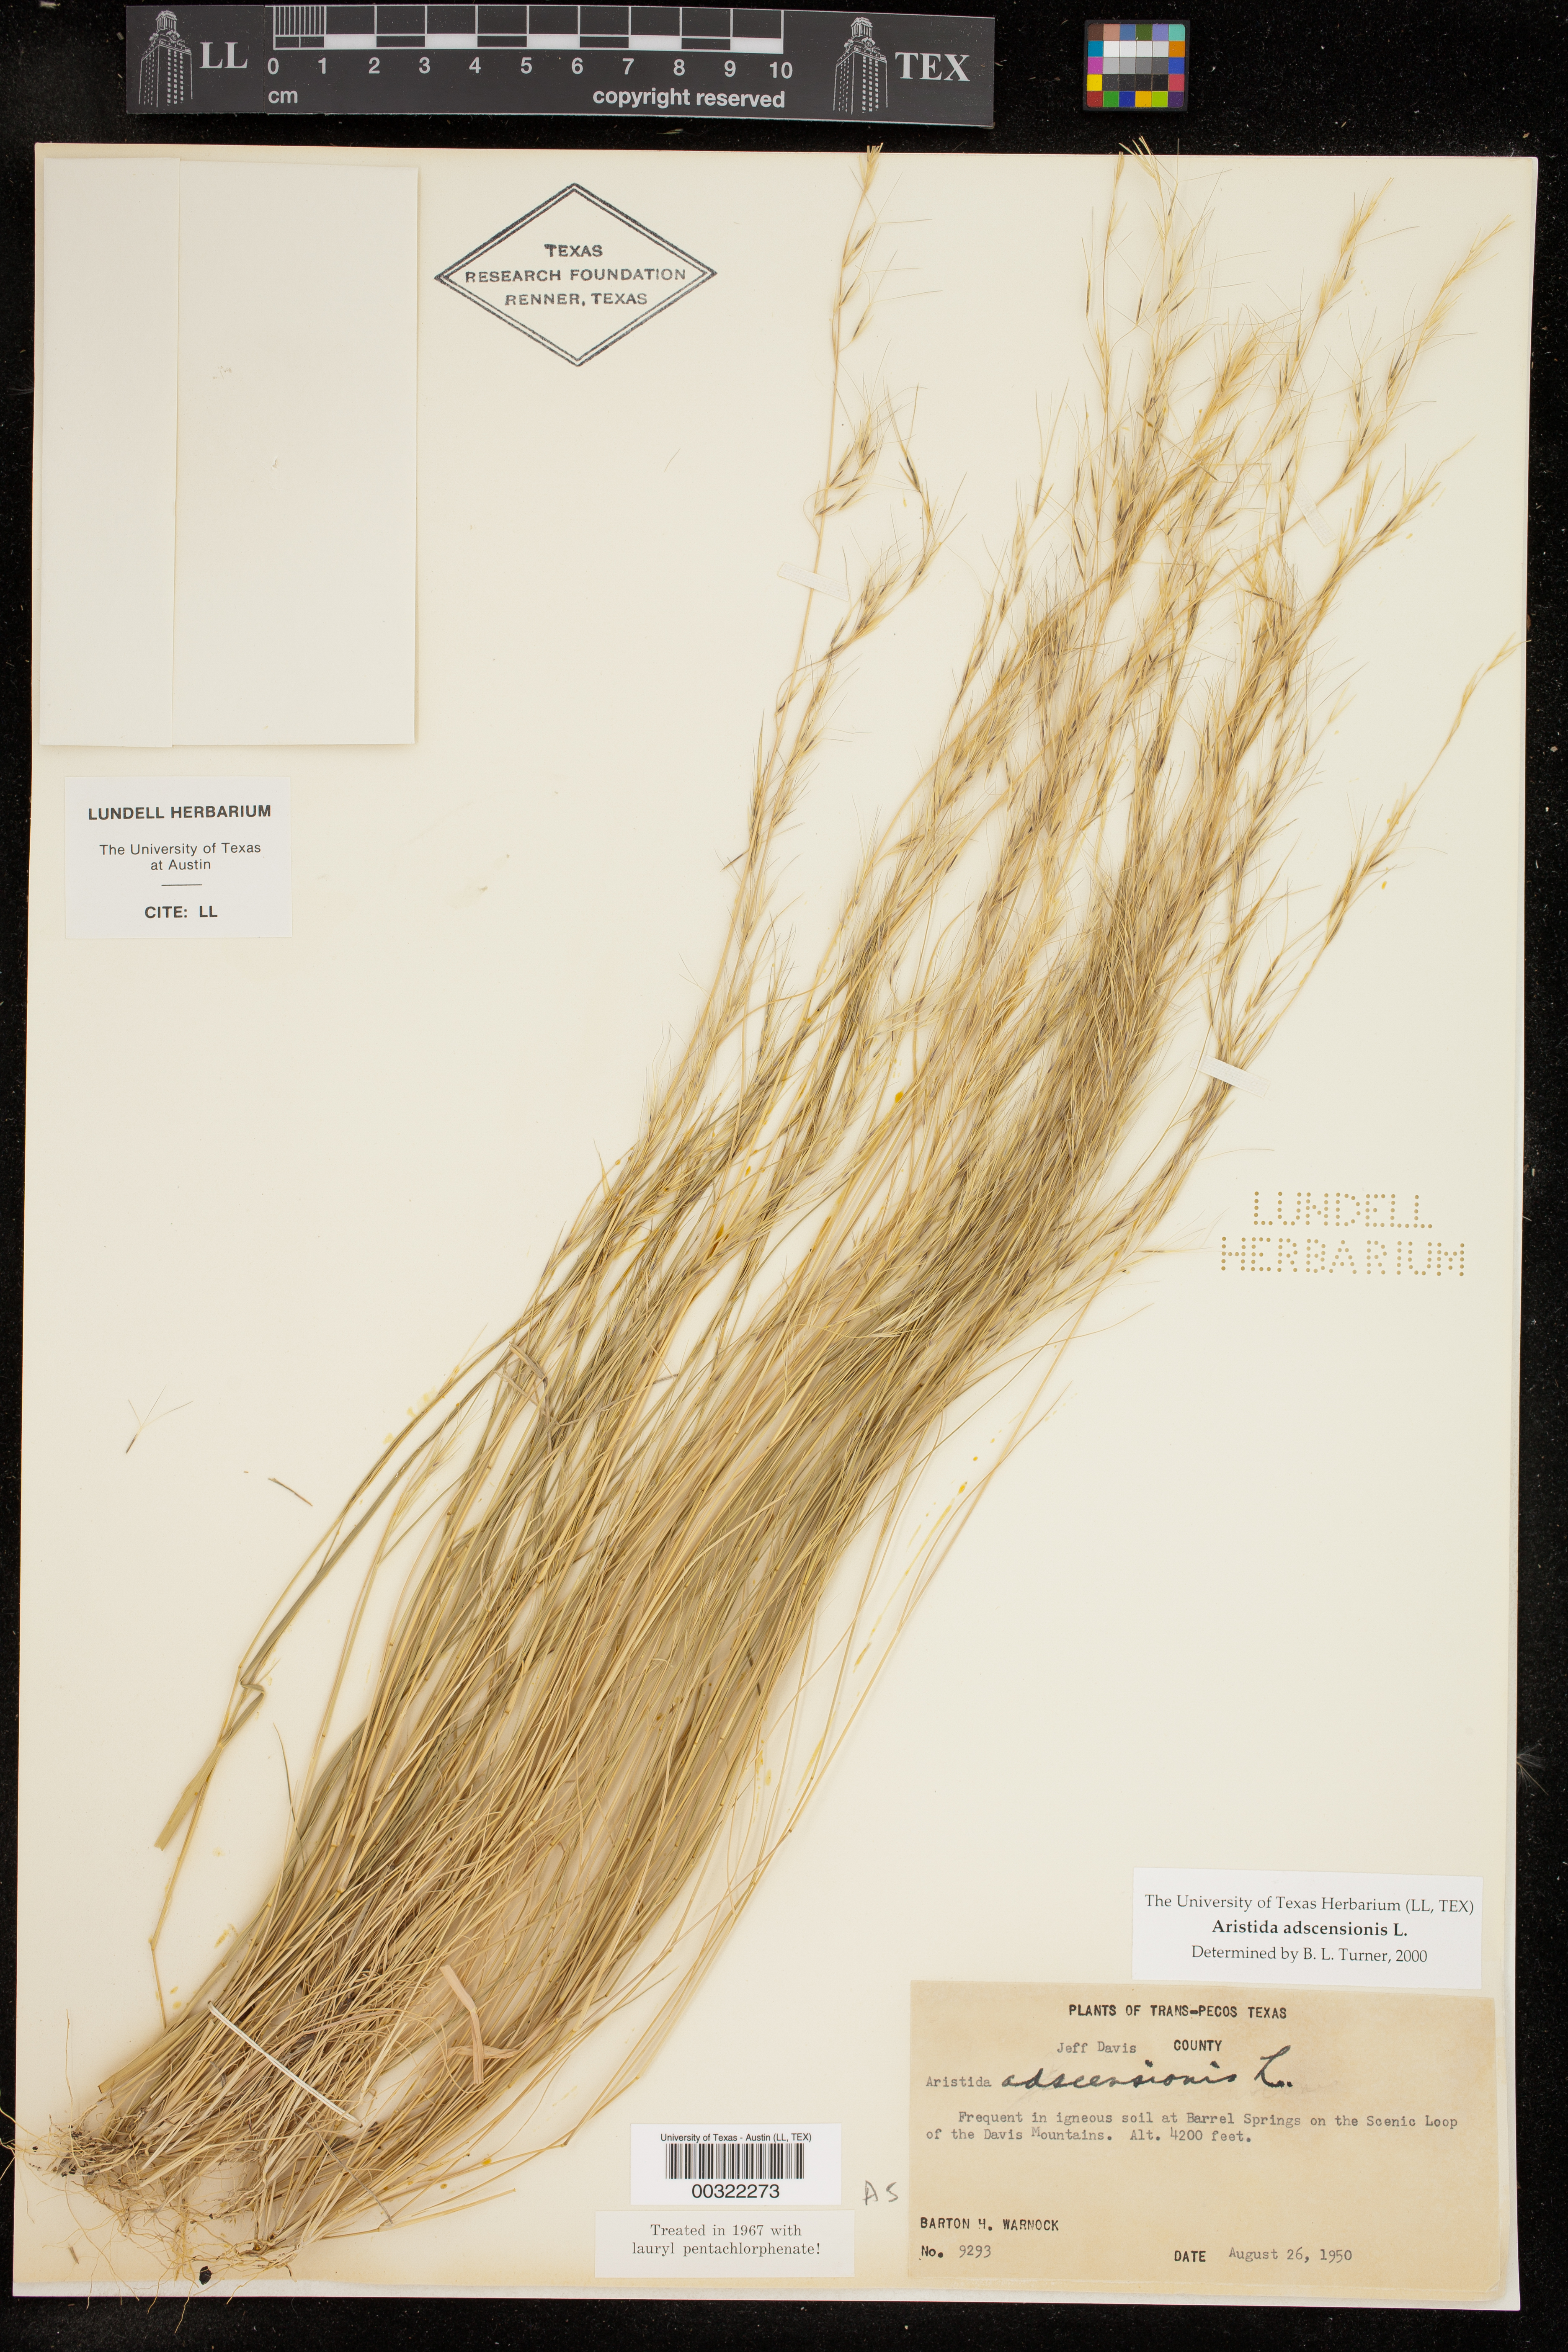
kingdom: Plantae
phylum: Tracheophyta
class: Liliopsida
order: Poales
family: Poaceae
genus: Aristida
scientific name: Aristida adscensionis
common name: Sixweeks threeawn
